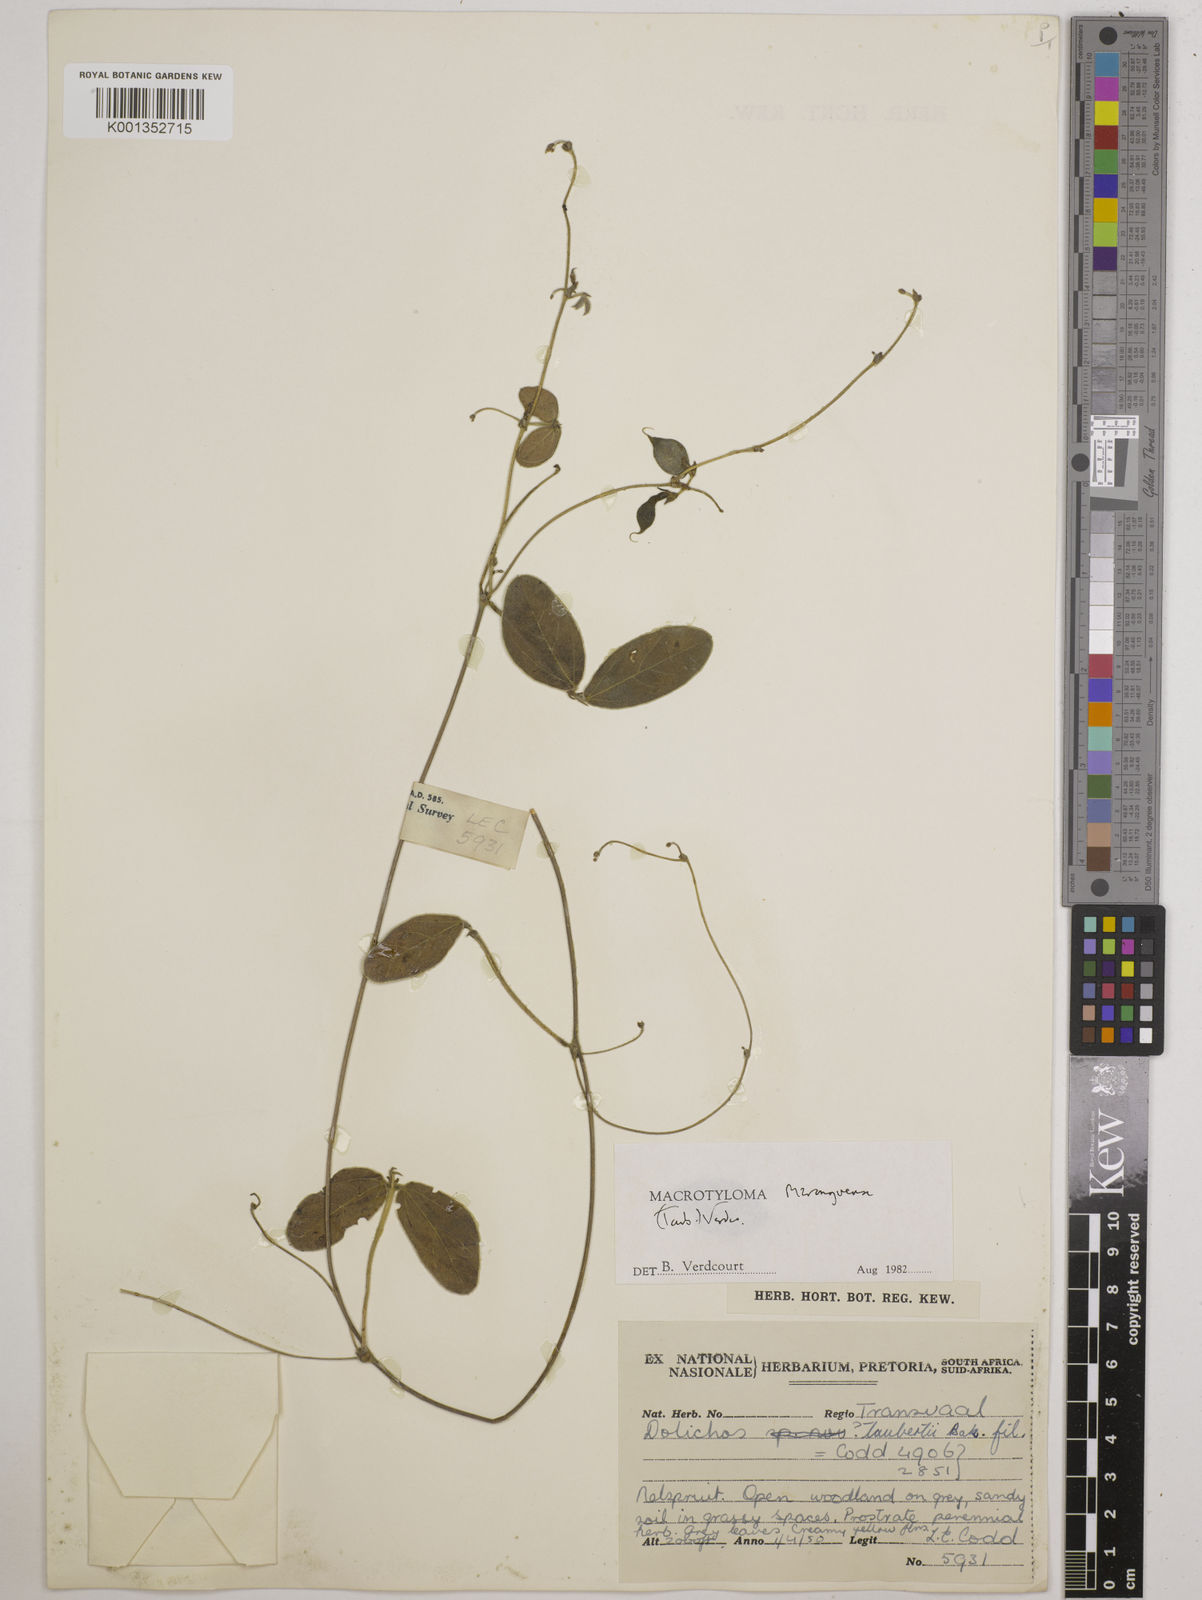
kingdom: Plantae
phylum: Tracheophyta
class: Magnoliopsida
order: Fabales
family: Fabaceae
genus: Macrotyloma
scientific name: Macrotyloma maranguense
